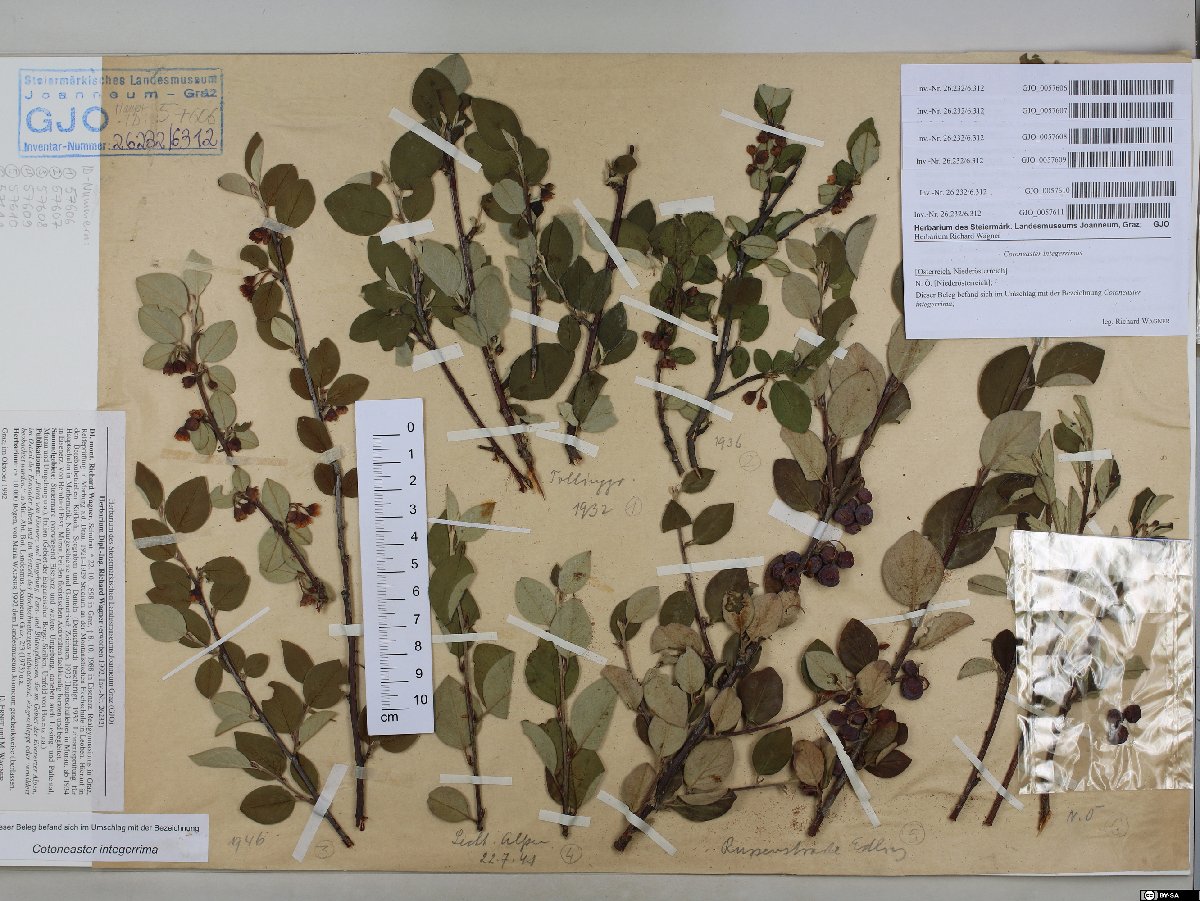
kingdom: Plantae
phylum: Tracheophyta
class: Magnoliopsida
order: Rosales
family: Rosaceae
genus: Cotoneaster
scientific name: Cotoneaster integerrimus
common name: Wild cotoneaster
